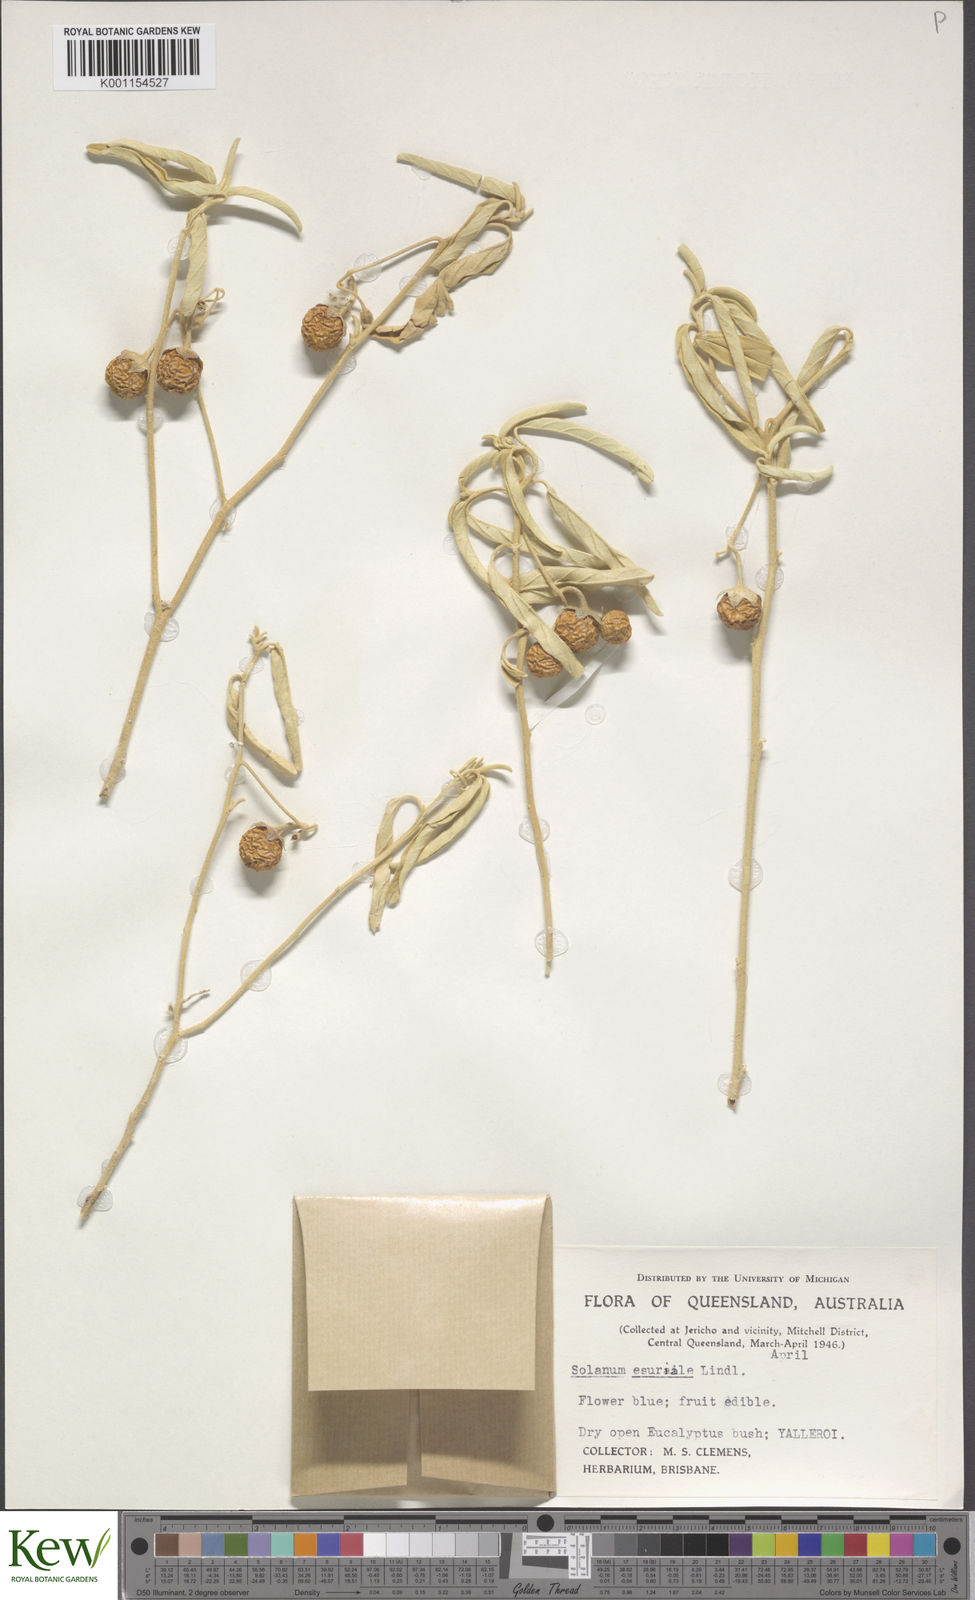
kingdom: Plantae
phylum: Tracheophyta
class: Magnoliopsida
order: Solanales
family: Solanaceae
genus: Solanum
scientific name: Solanum esuriale
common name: Wild tomato
